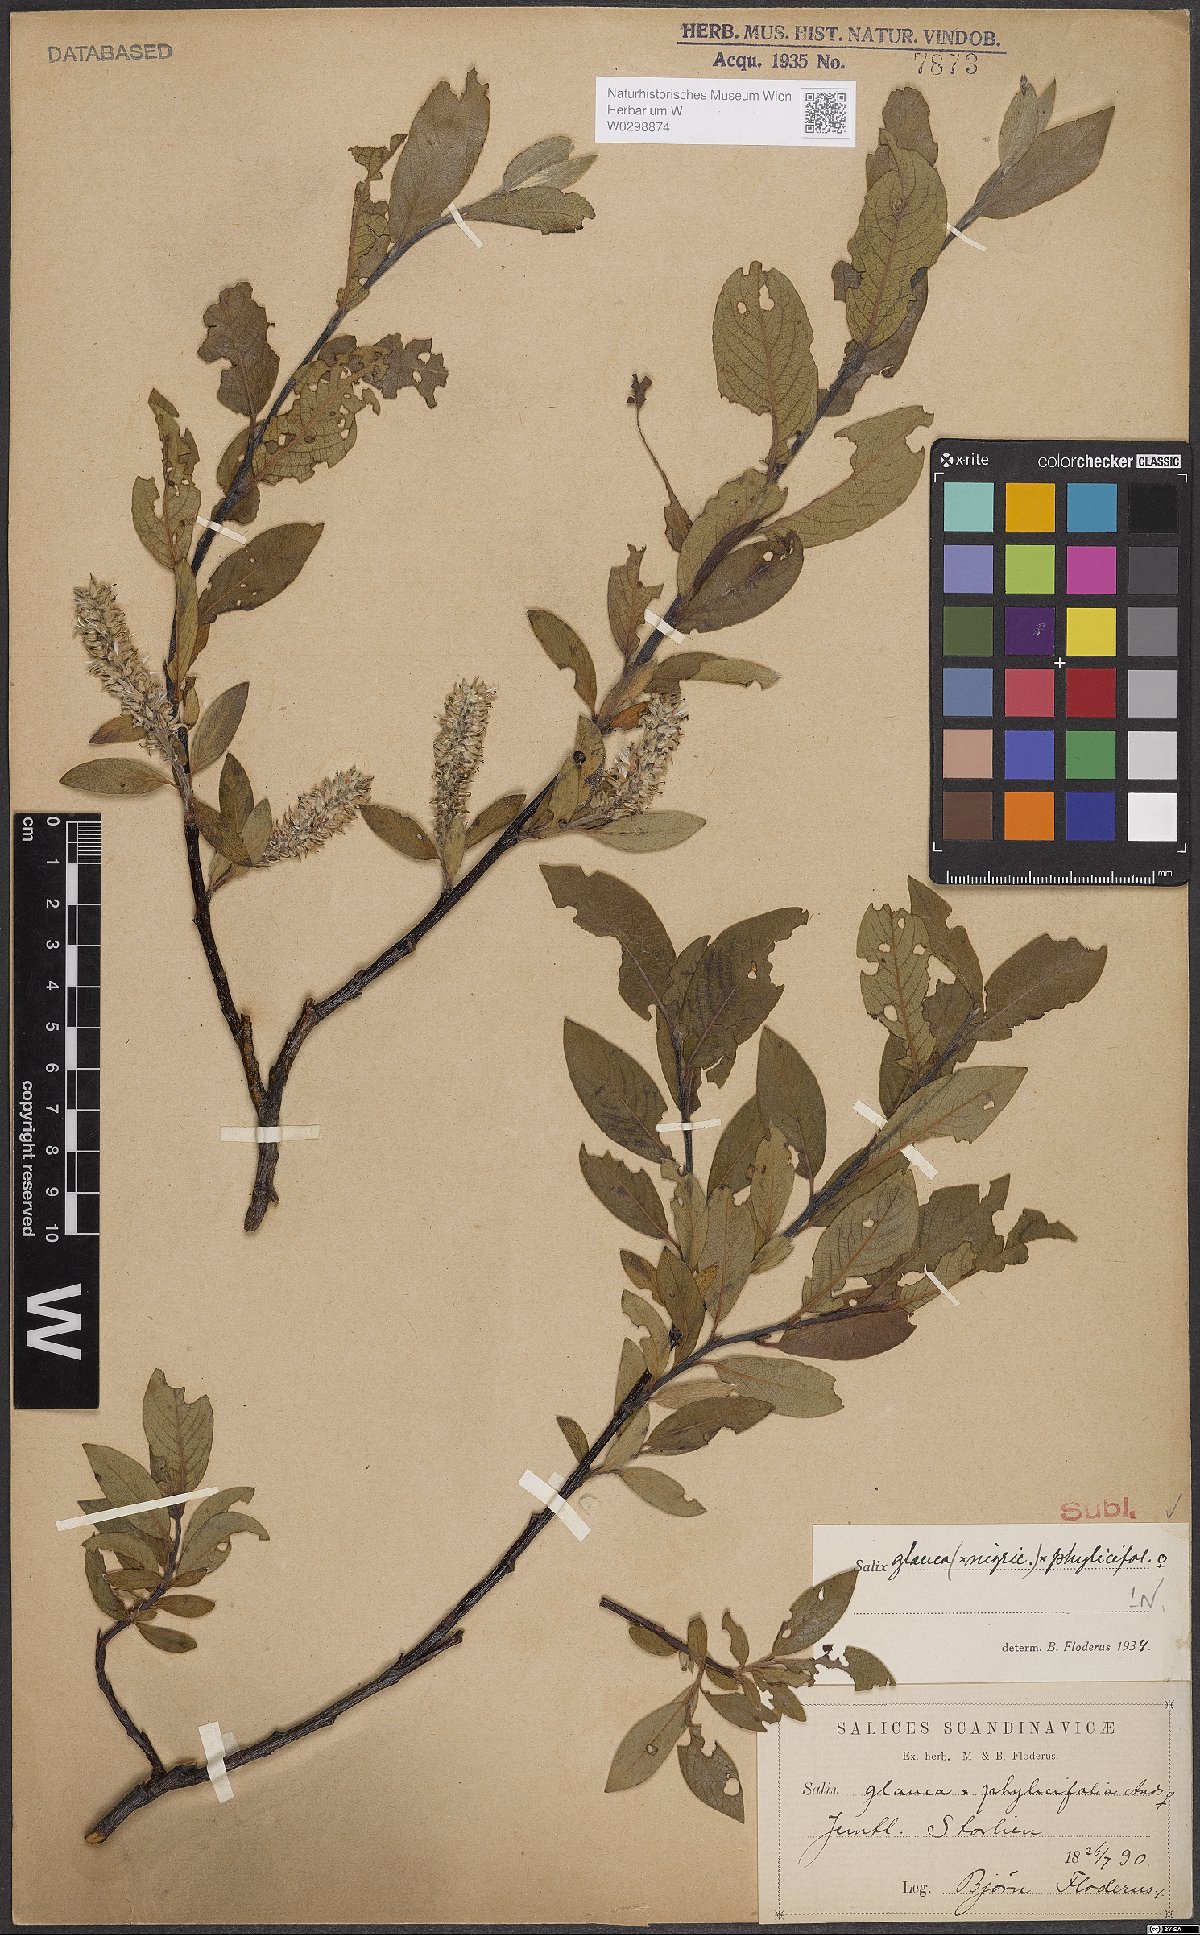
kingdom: Plantae
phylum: Tracheophyta
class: Magnoliopsida
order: Malpighiales
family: Salicaceae
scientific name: Salicaceae
